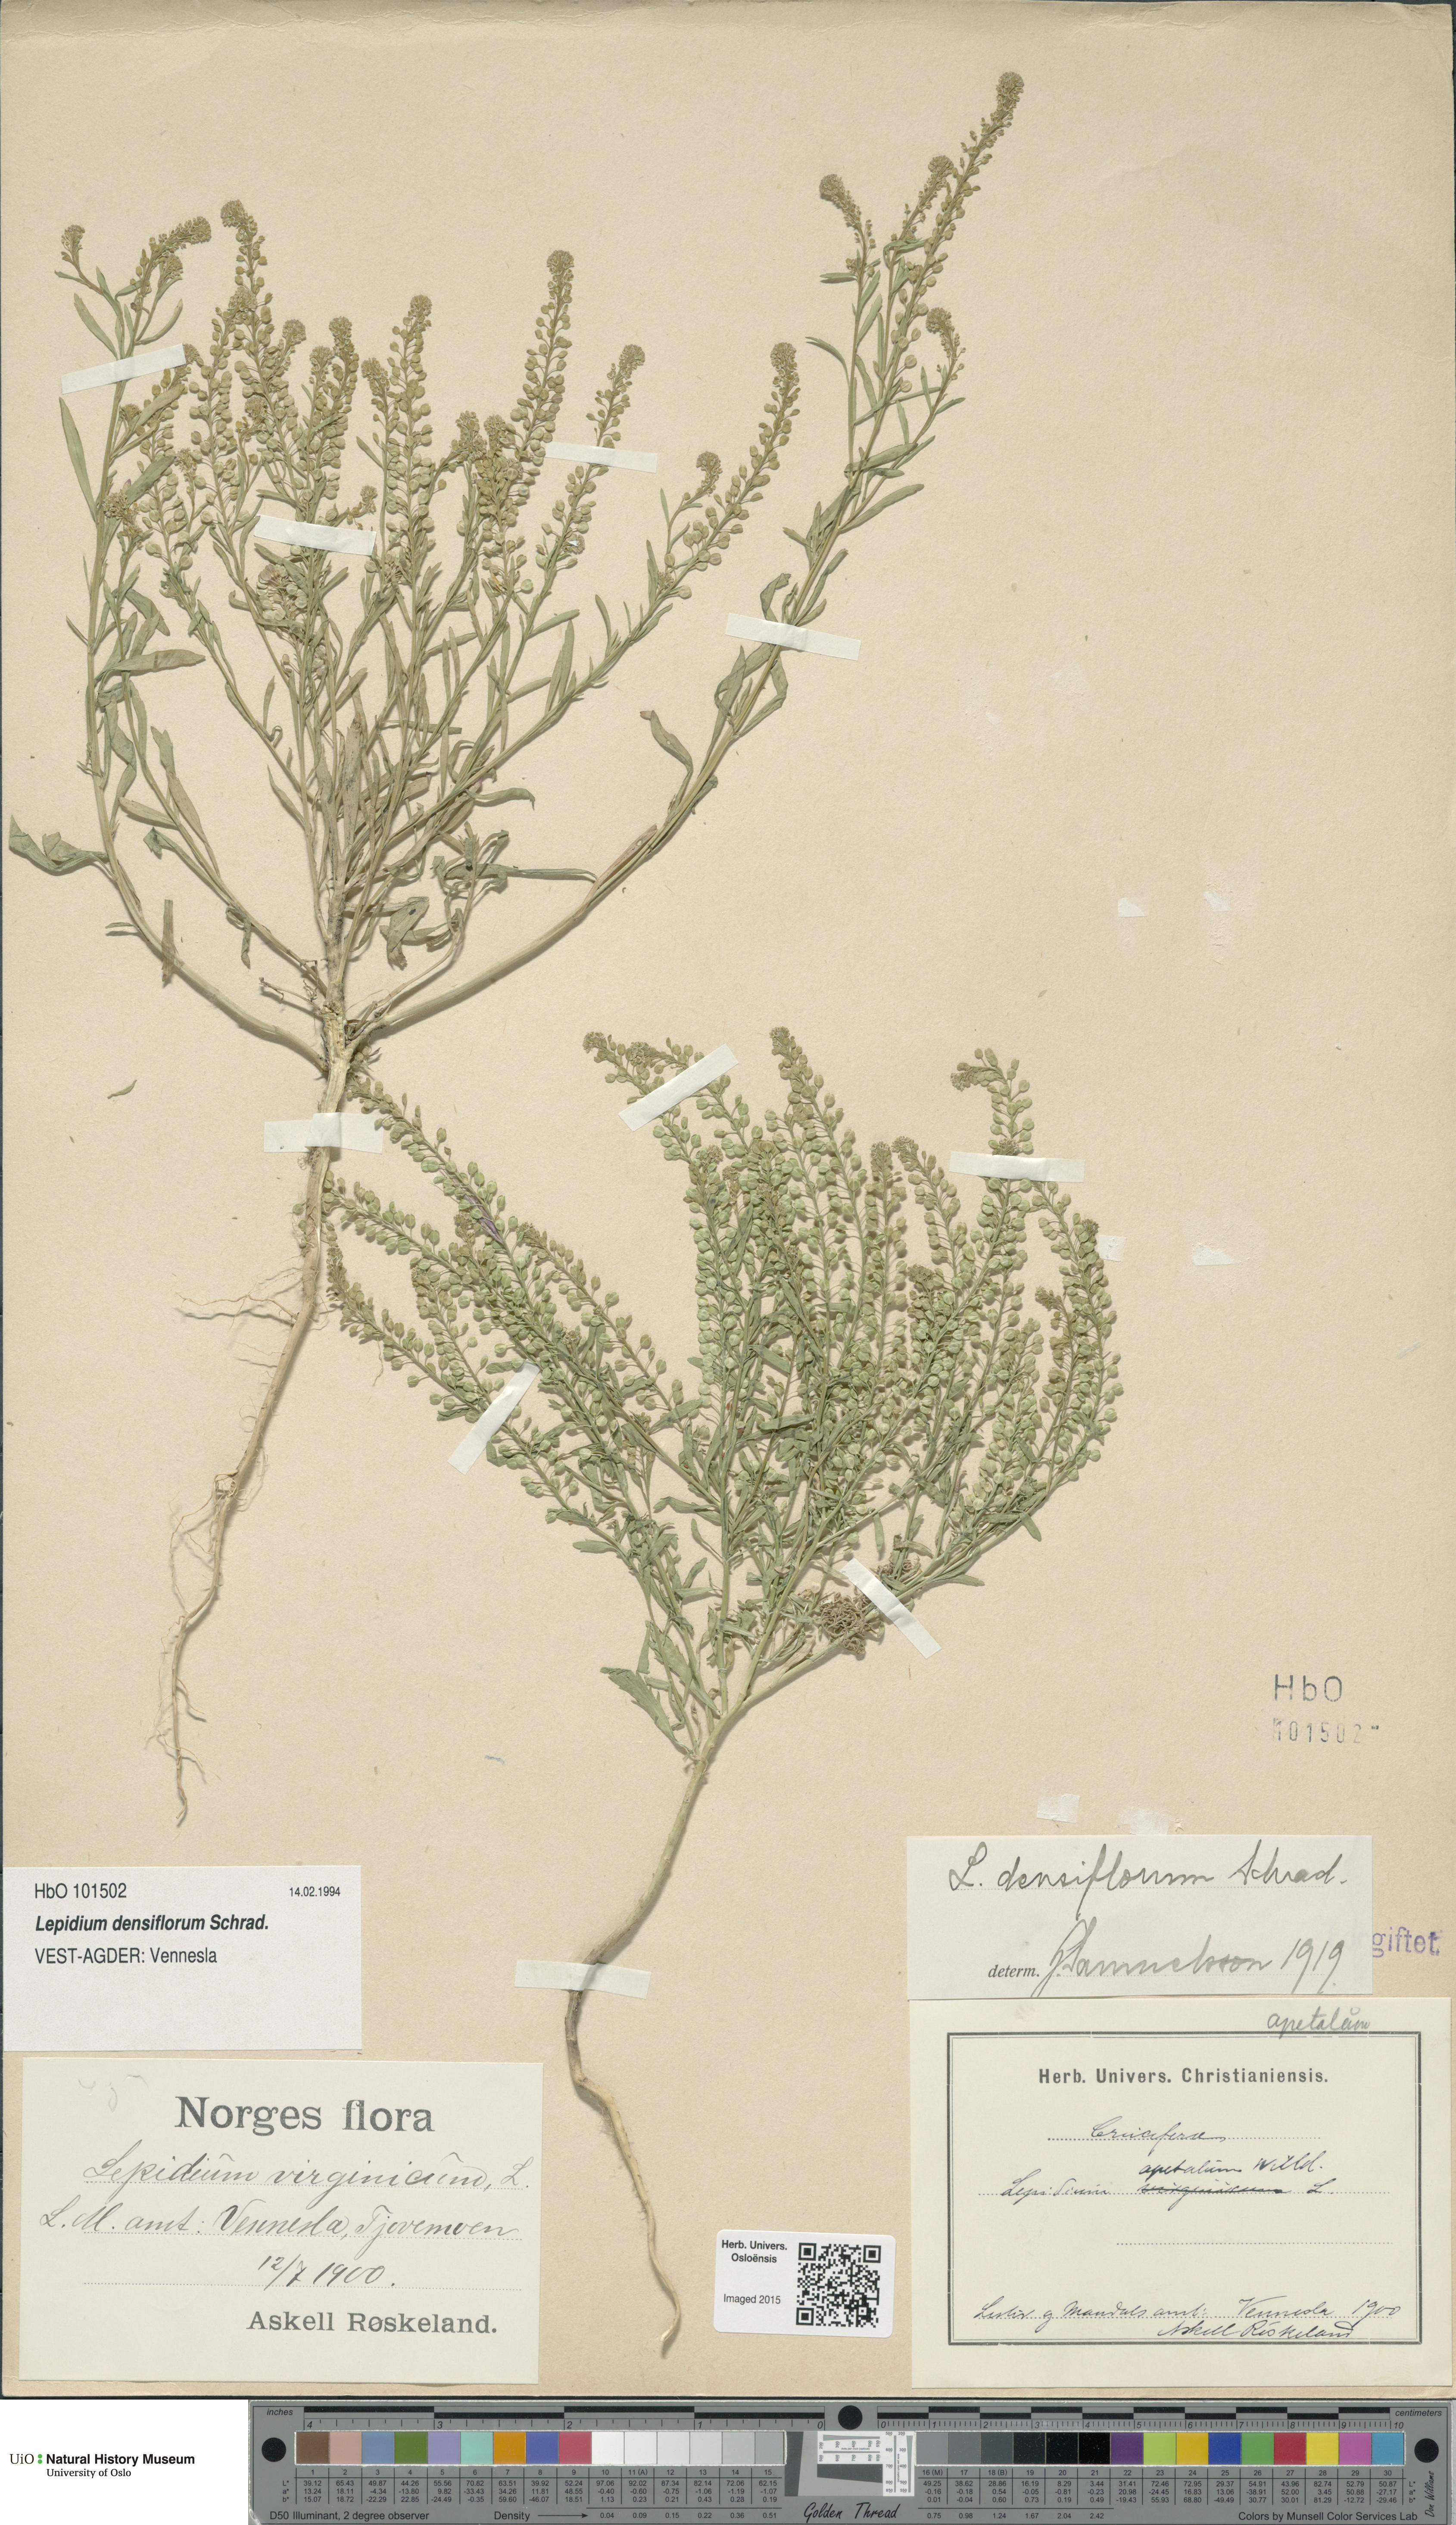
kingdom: Plantae
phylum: Tracheophyta
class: Magnoliopsida
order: Brassicales
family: Brassicaceae
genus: Lepidium
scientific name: Lepidium densiflorum
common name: Miner's pepperwort
